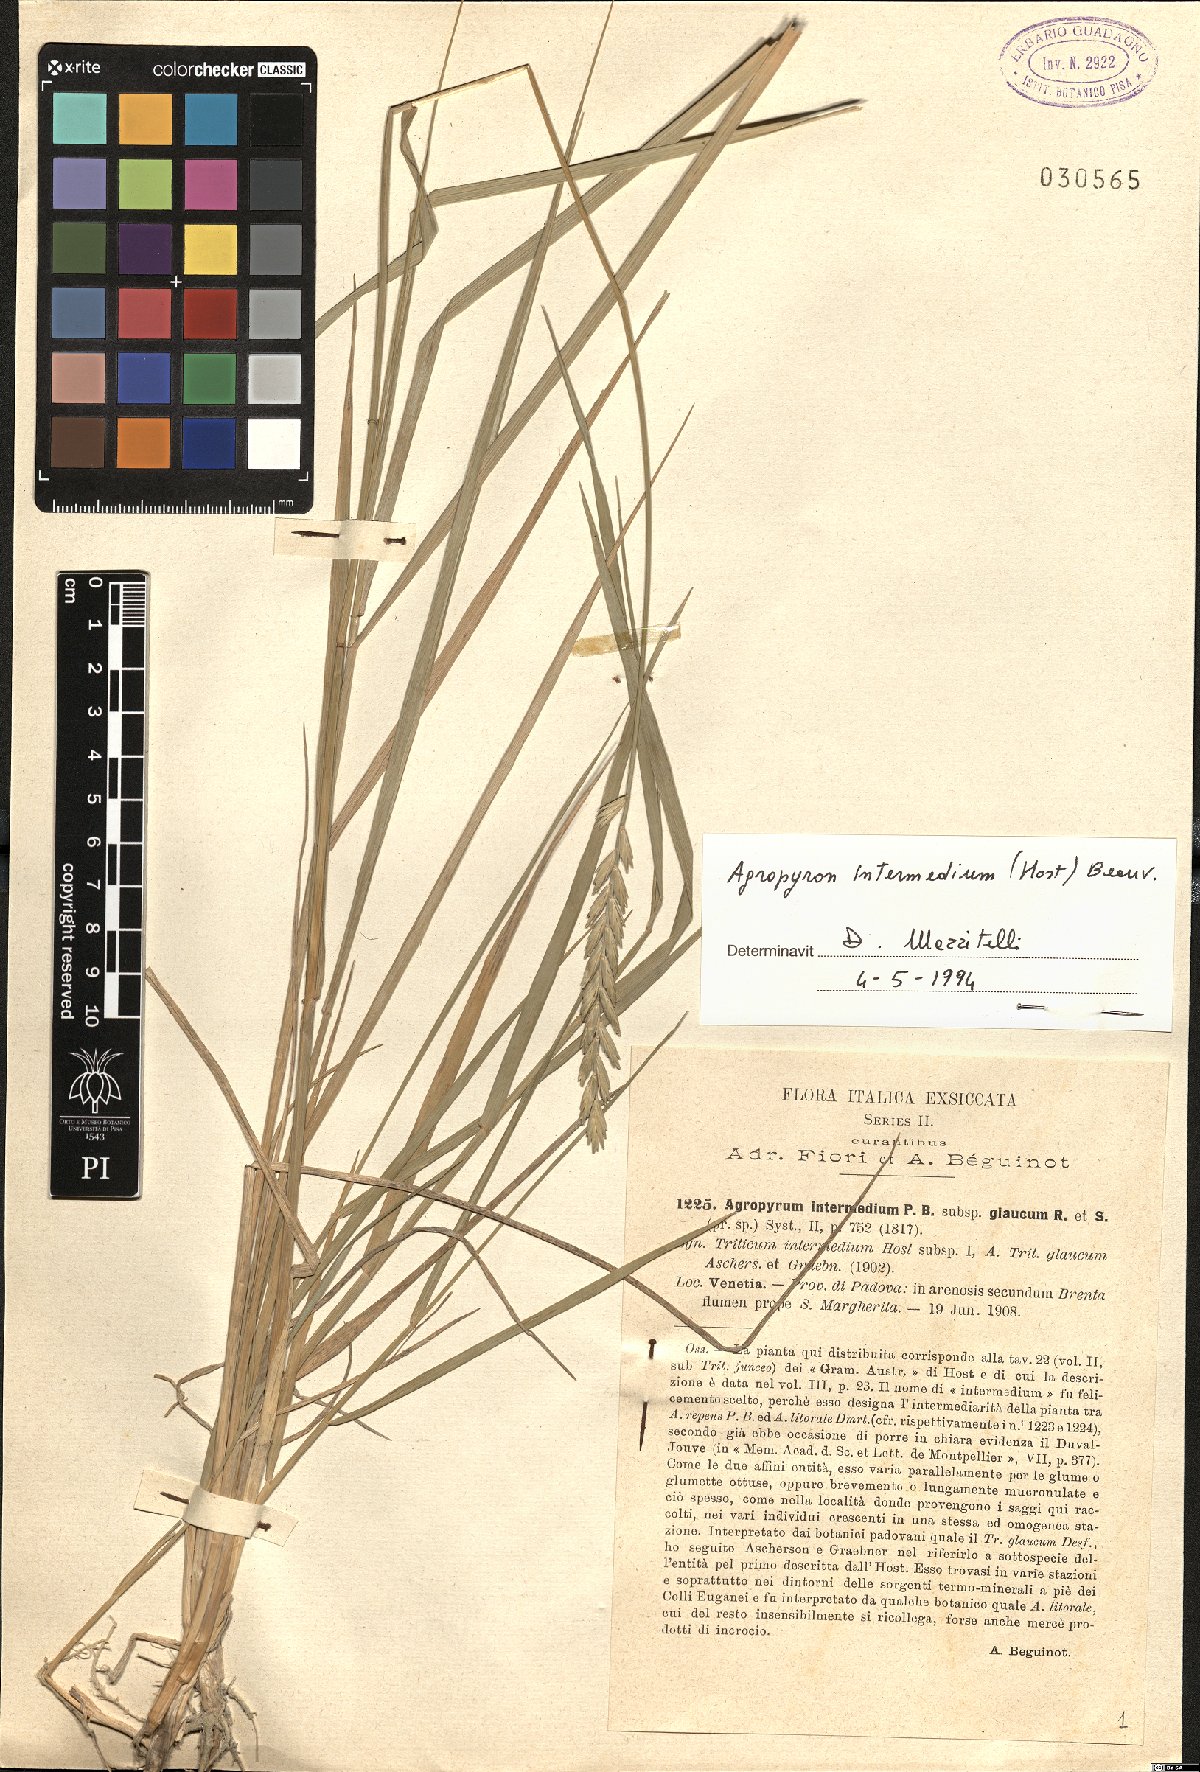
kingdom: Plantae
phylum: Tracheophyta
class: Liliopsida
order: Poales
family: Poaceae
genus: Thinopyrum
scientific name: Thinopyrum intermedium
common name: Intermediate wheatgrass
